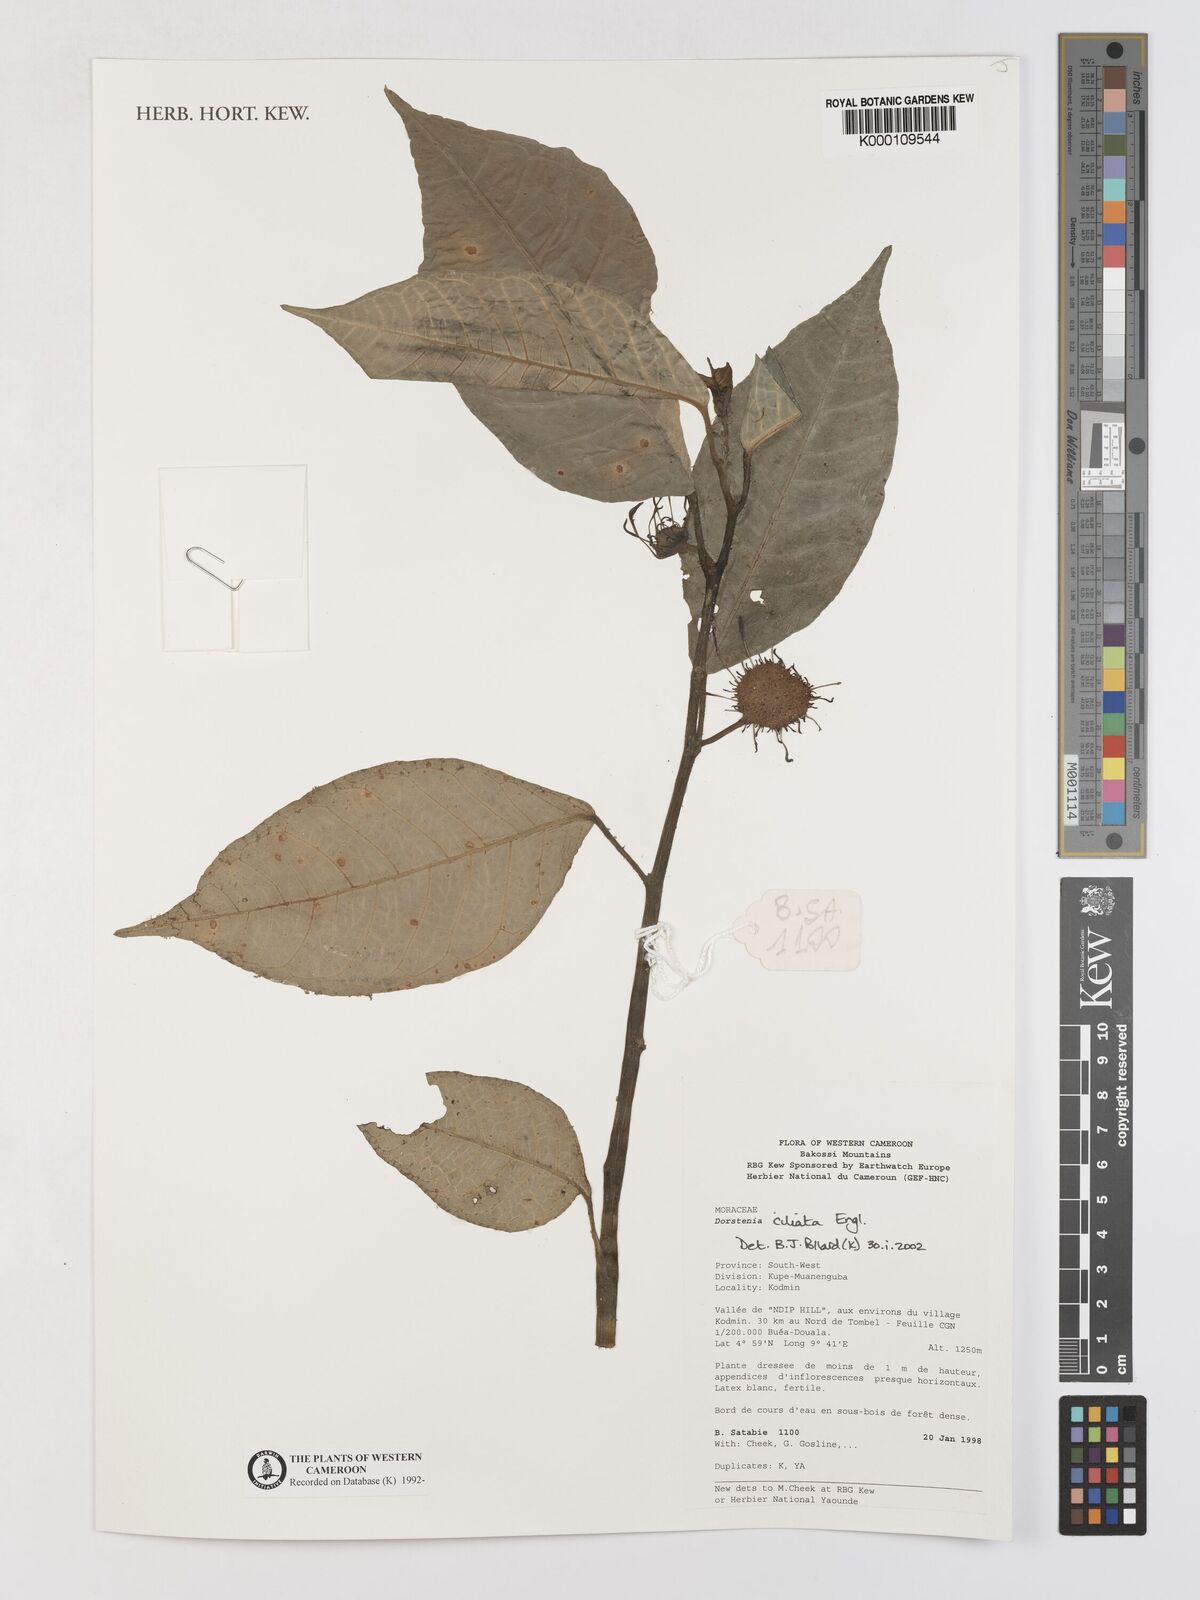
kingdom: Plantae
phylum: Tracheophyta
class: Magnoliopsida
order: Rosales
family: Moraceae
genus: Dorstenia
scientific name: Dorstenia ciliata
